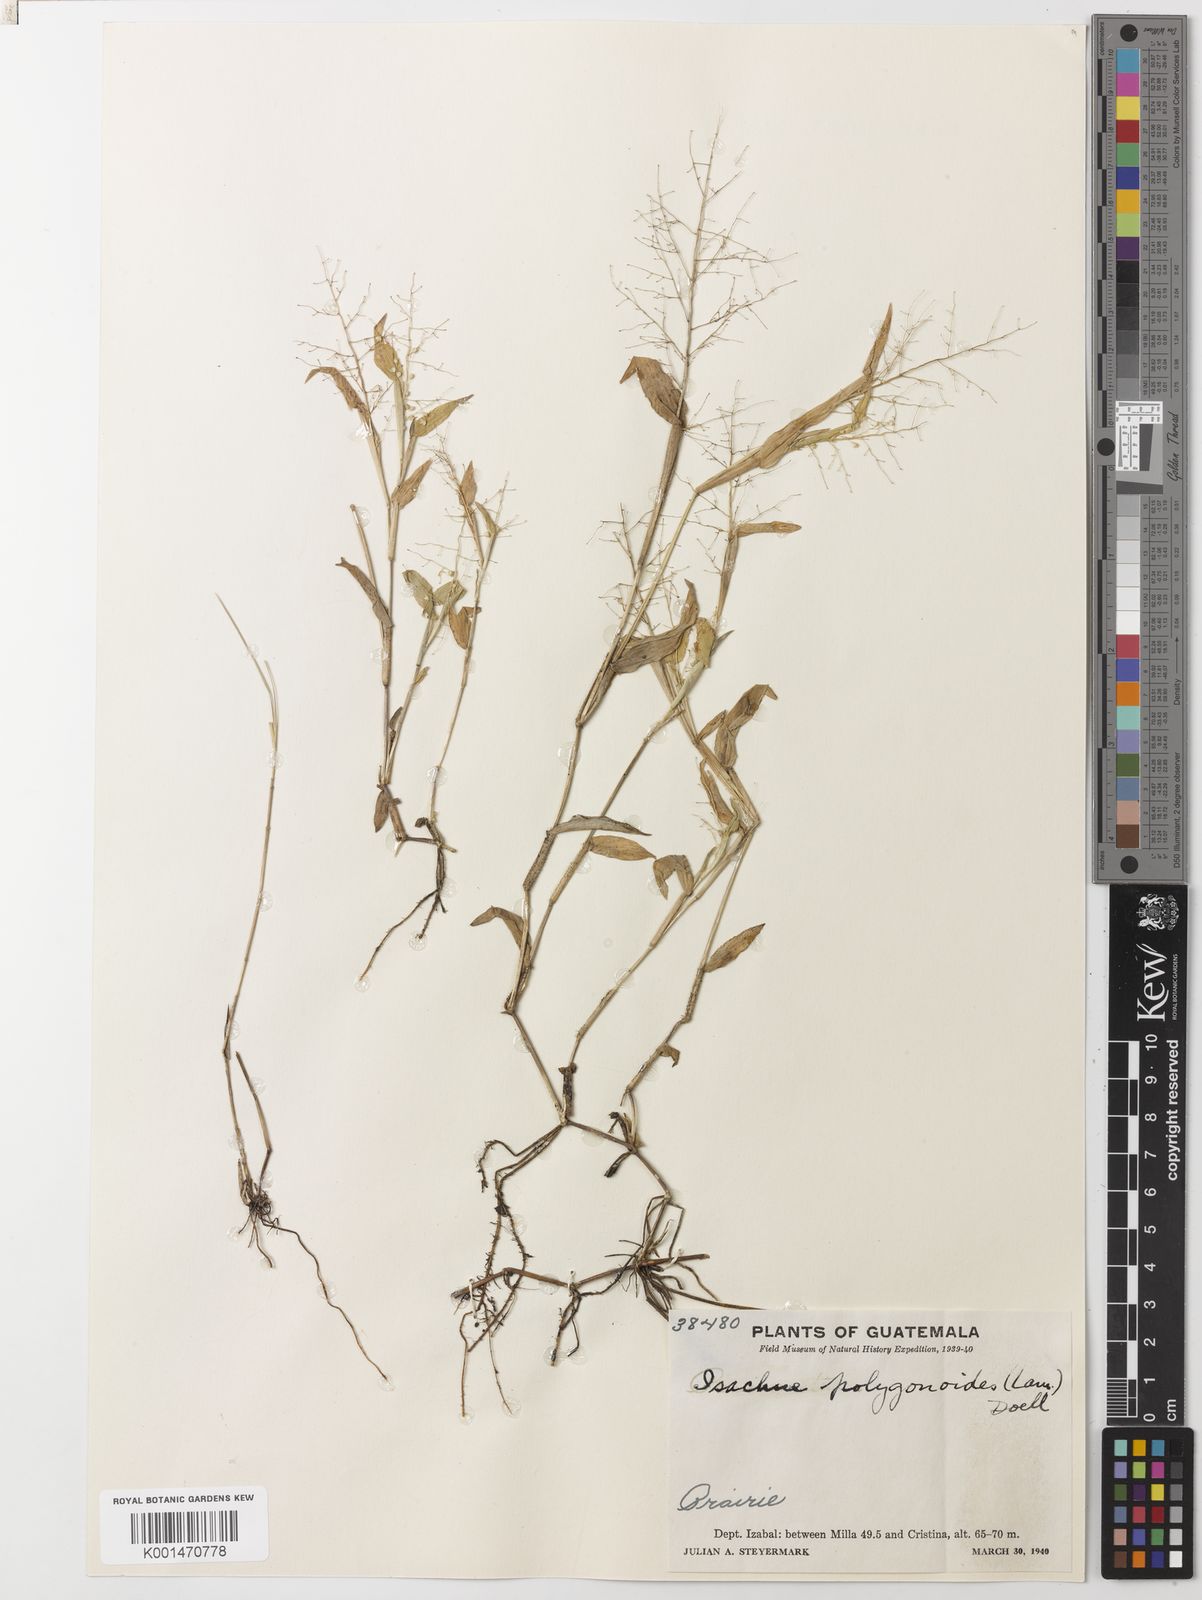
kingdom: Plantae
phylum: Tracheophyta
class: Liliopsida
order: Poales
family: Poaceae
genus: Isachne
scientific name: Isachne
